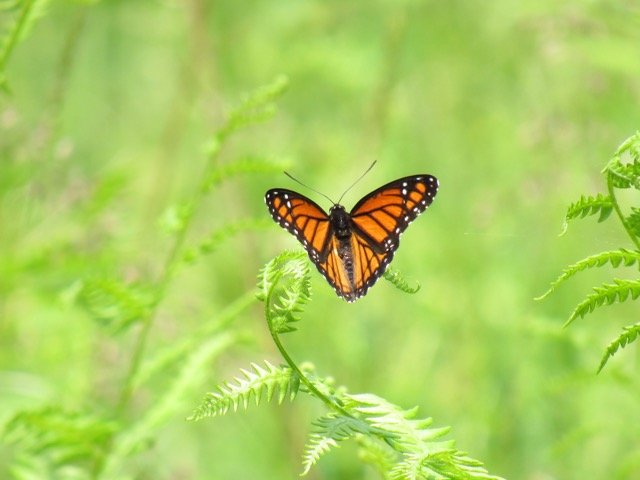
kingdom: Animalia
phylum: Arthropoda
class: Insecta
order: Lepidoptera
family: Nymphalidae
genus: Limenitis
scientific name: Limenitis archippus
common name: Viceroy
